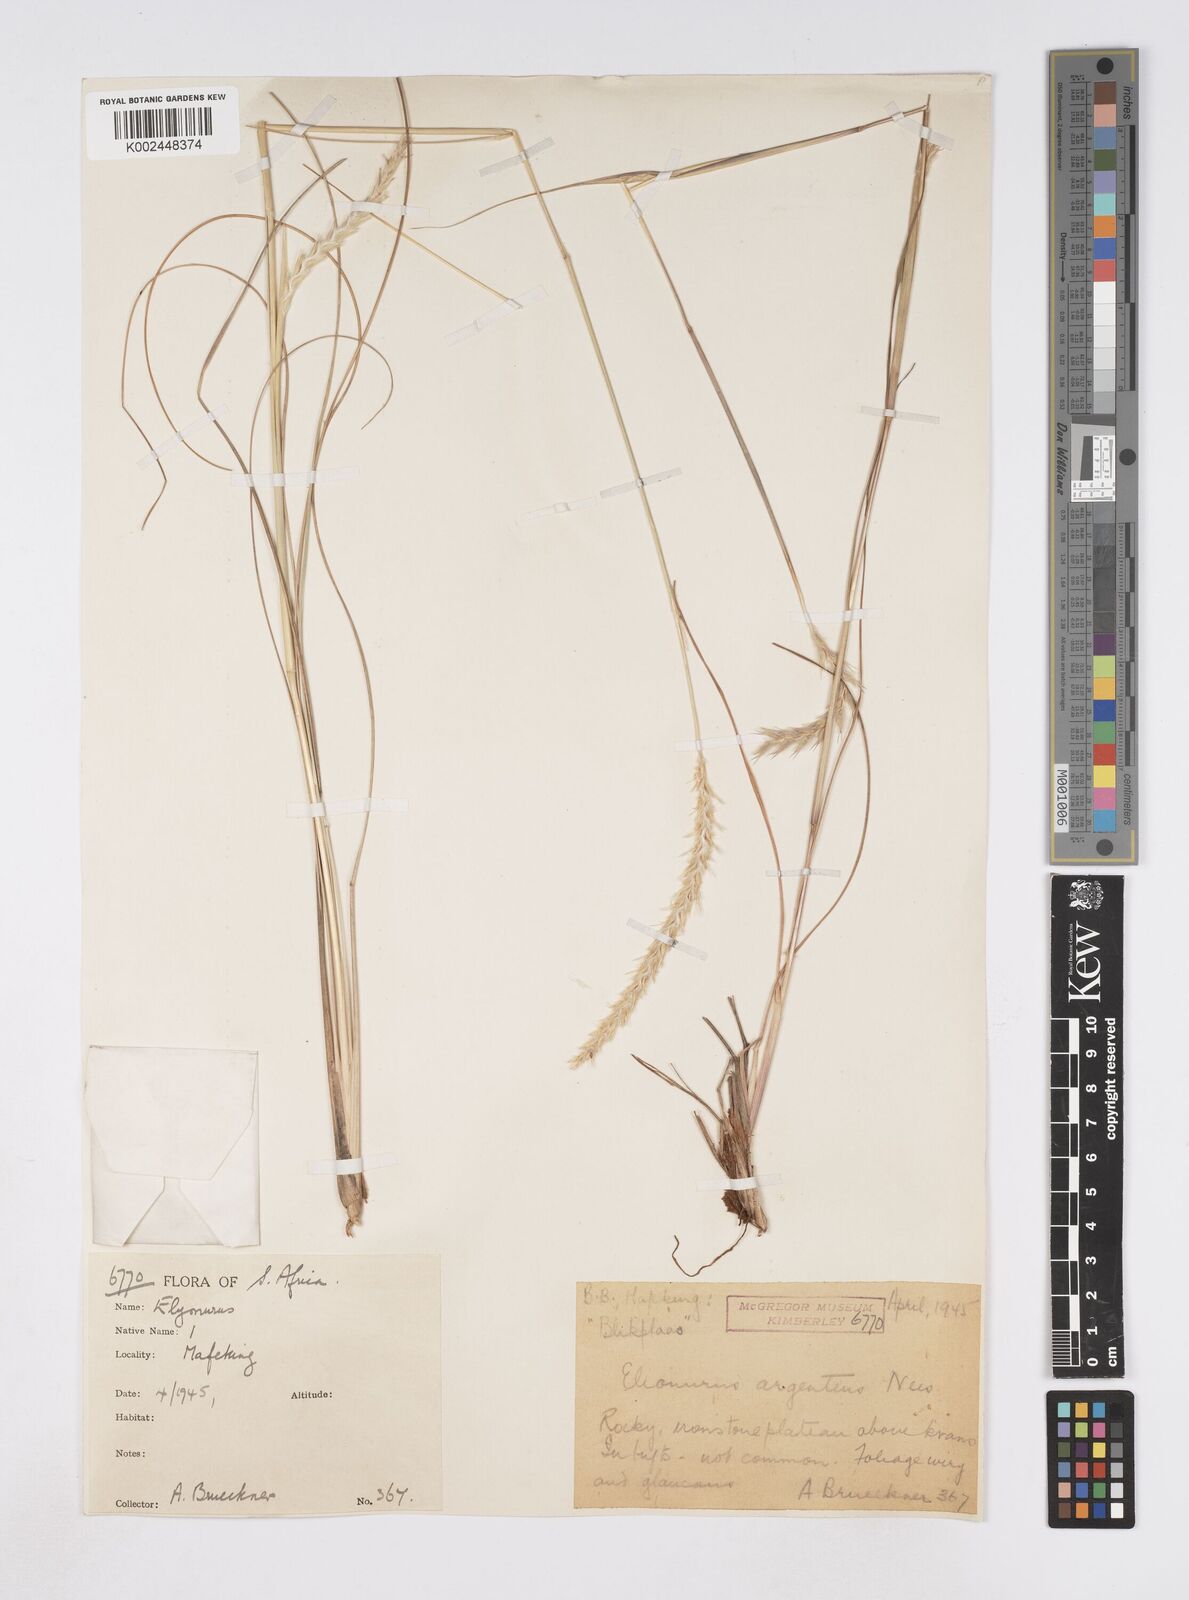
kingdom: Plantae
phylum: Tracheophyta
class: Liliopsida
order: Poales
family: Poaceae
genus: Elionurus
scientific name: Elionurus muticus
